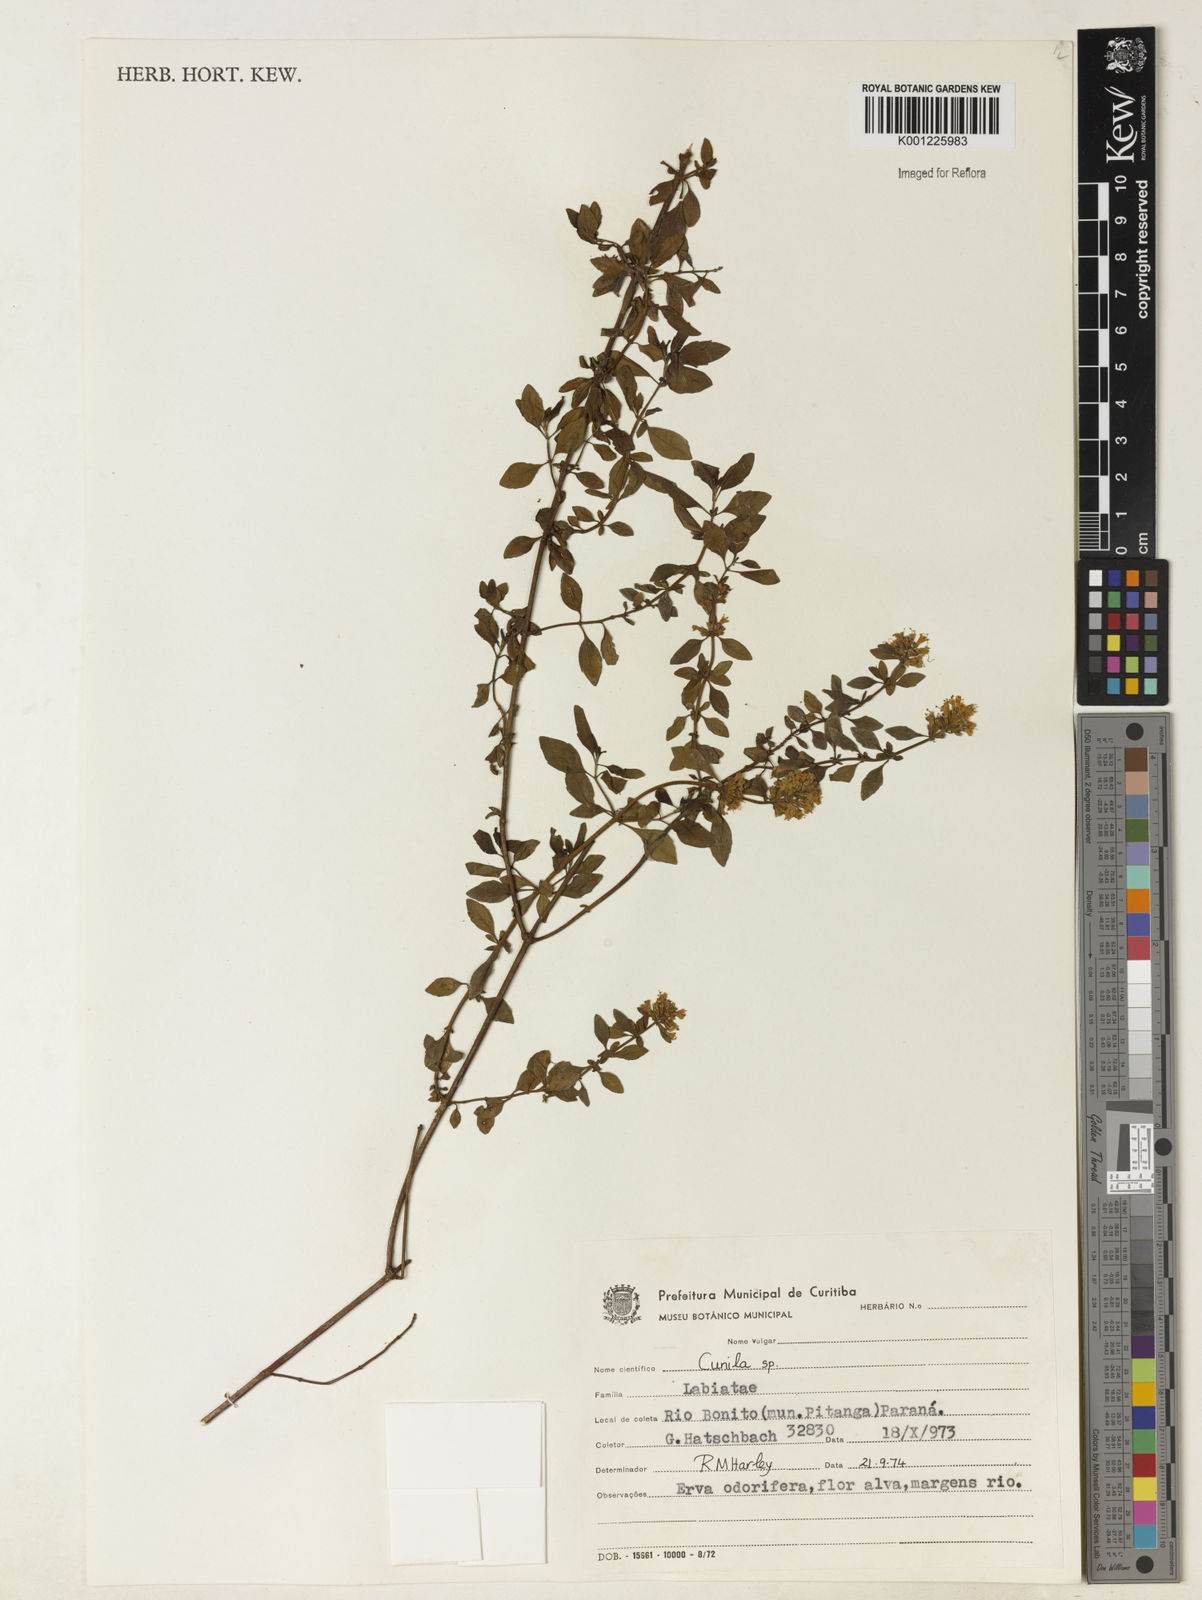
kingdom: Plantae
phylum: Tracheophyta
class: Magnoliopsida
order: Lamiales
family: Lamiaceae
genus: Cunila
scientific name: Cunila spicata
